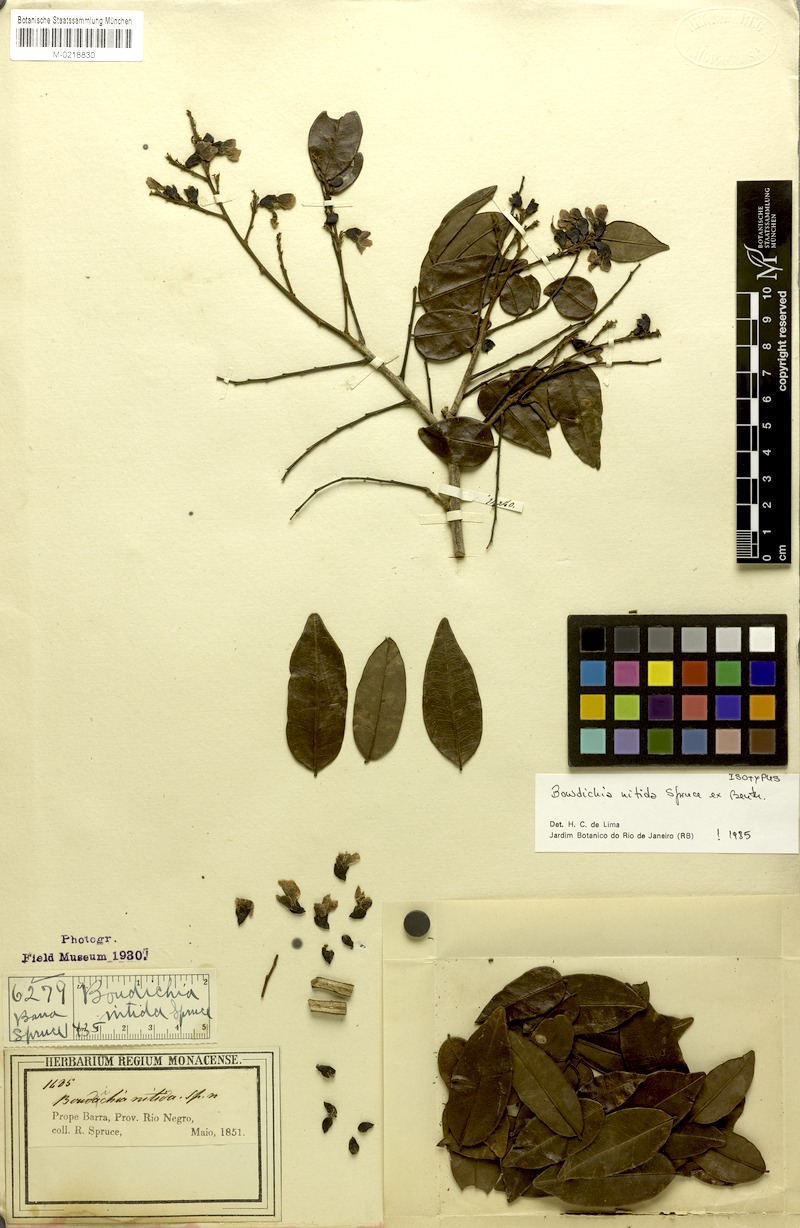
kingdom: Plantae
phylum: Tracheophyta
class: Magnoliopsida
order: Fabales
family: Fabaceae
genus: Bowdichia
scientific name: Bowdichia nitida
